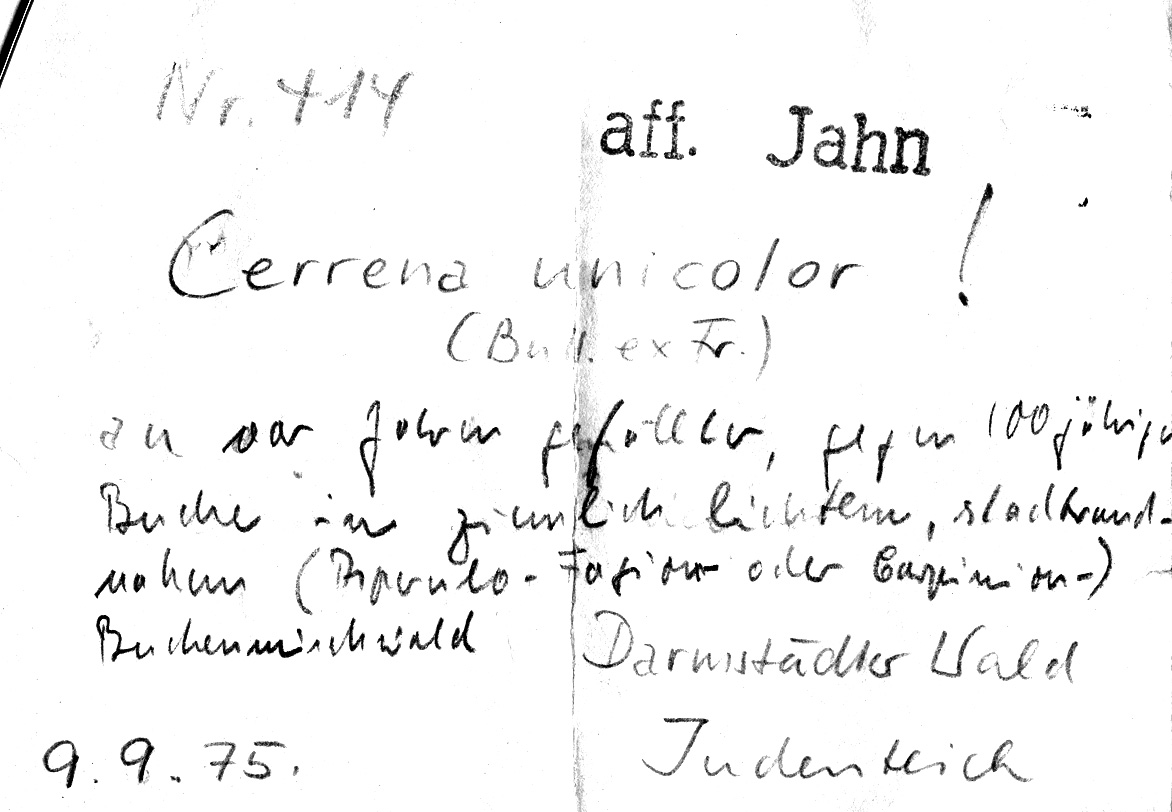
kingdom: Fungi
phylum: Basidiomycota
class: Agaricomycetes
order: Polyporales
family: Cerrenaceae
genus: Cerrena
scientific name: Cerrena unicolor
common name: Mossy maze polypore
